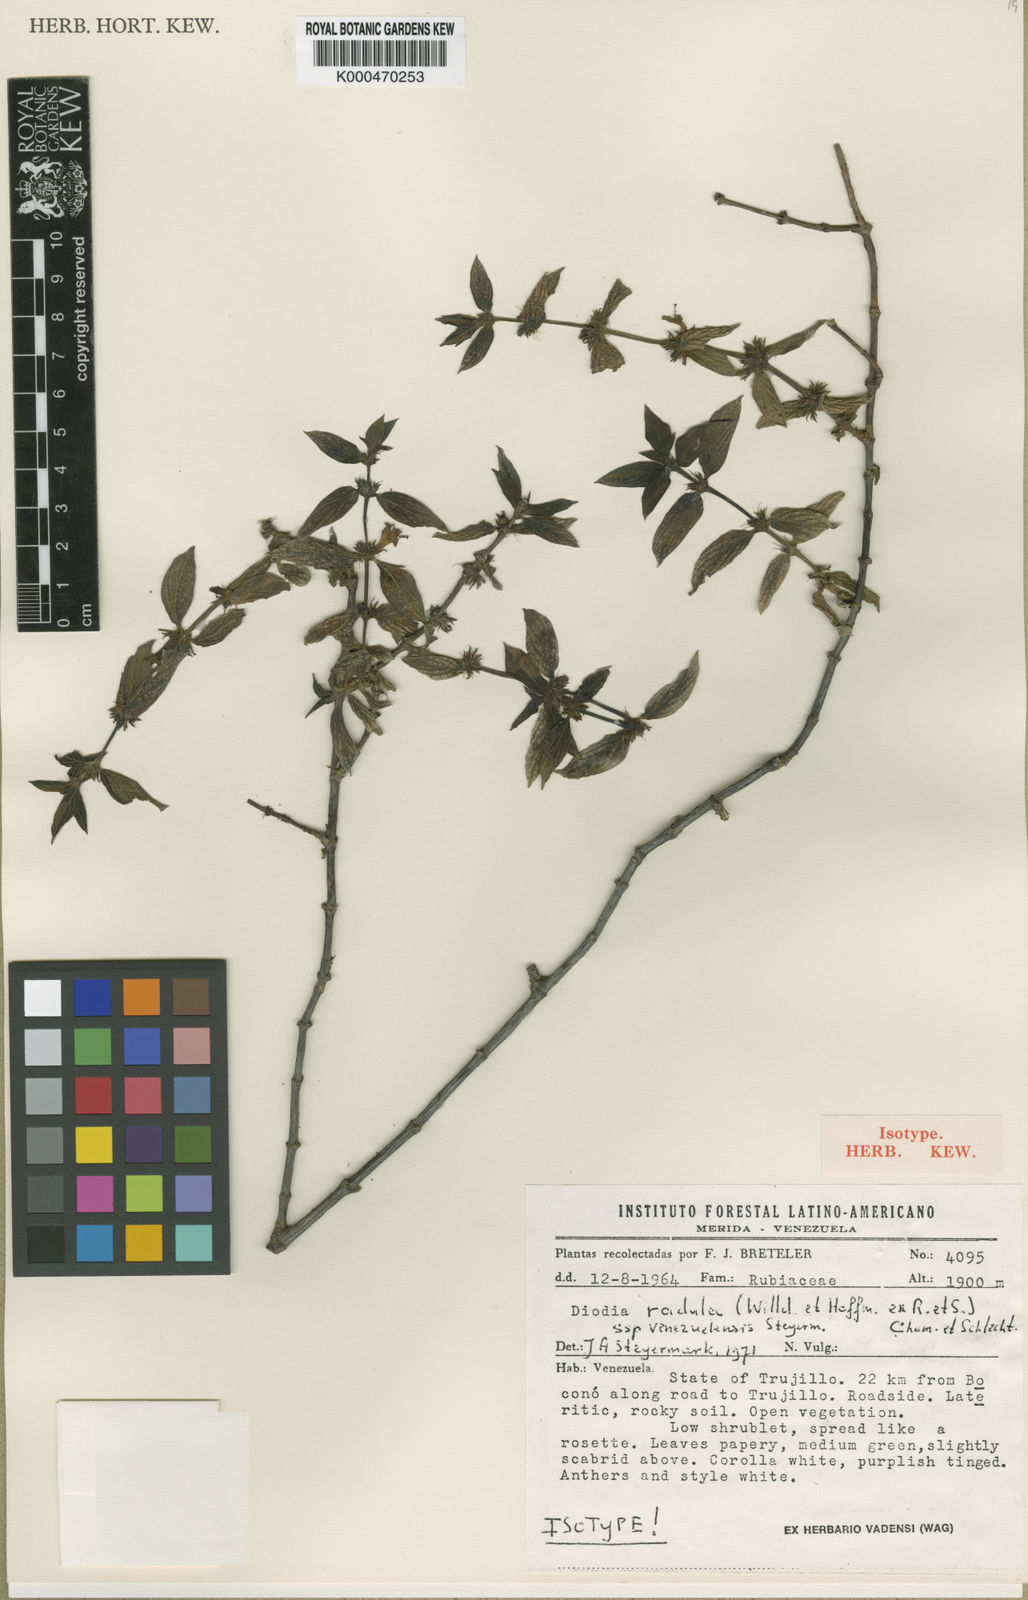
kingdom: Plantae
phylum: Tracheophyta
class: Magnoliopsida
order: Gentianales
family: Rubiaceae
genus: Hexasepalum
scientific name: Hexasepalum radulum
